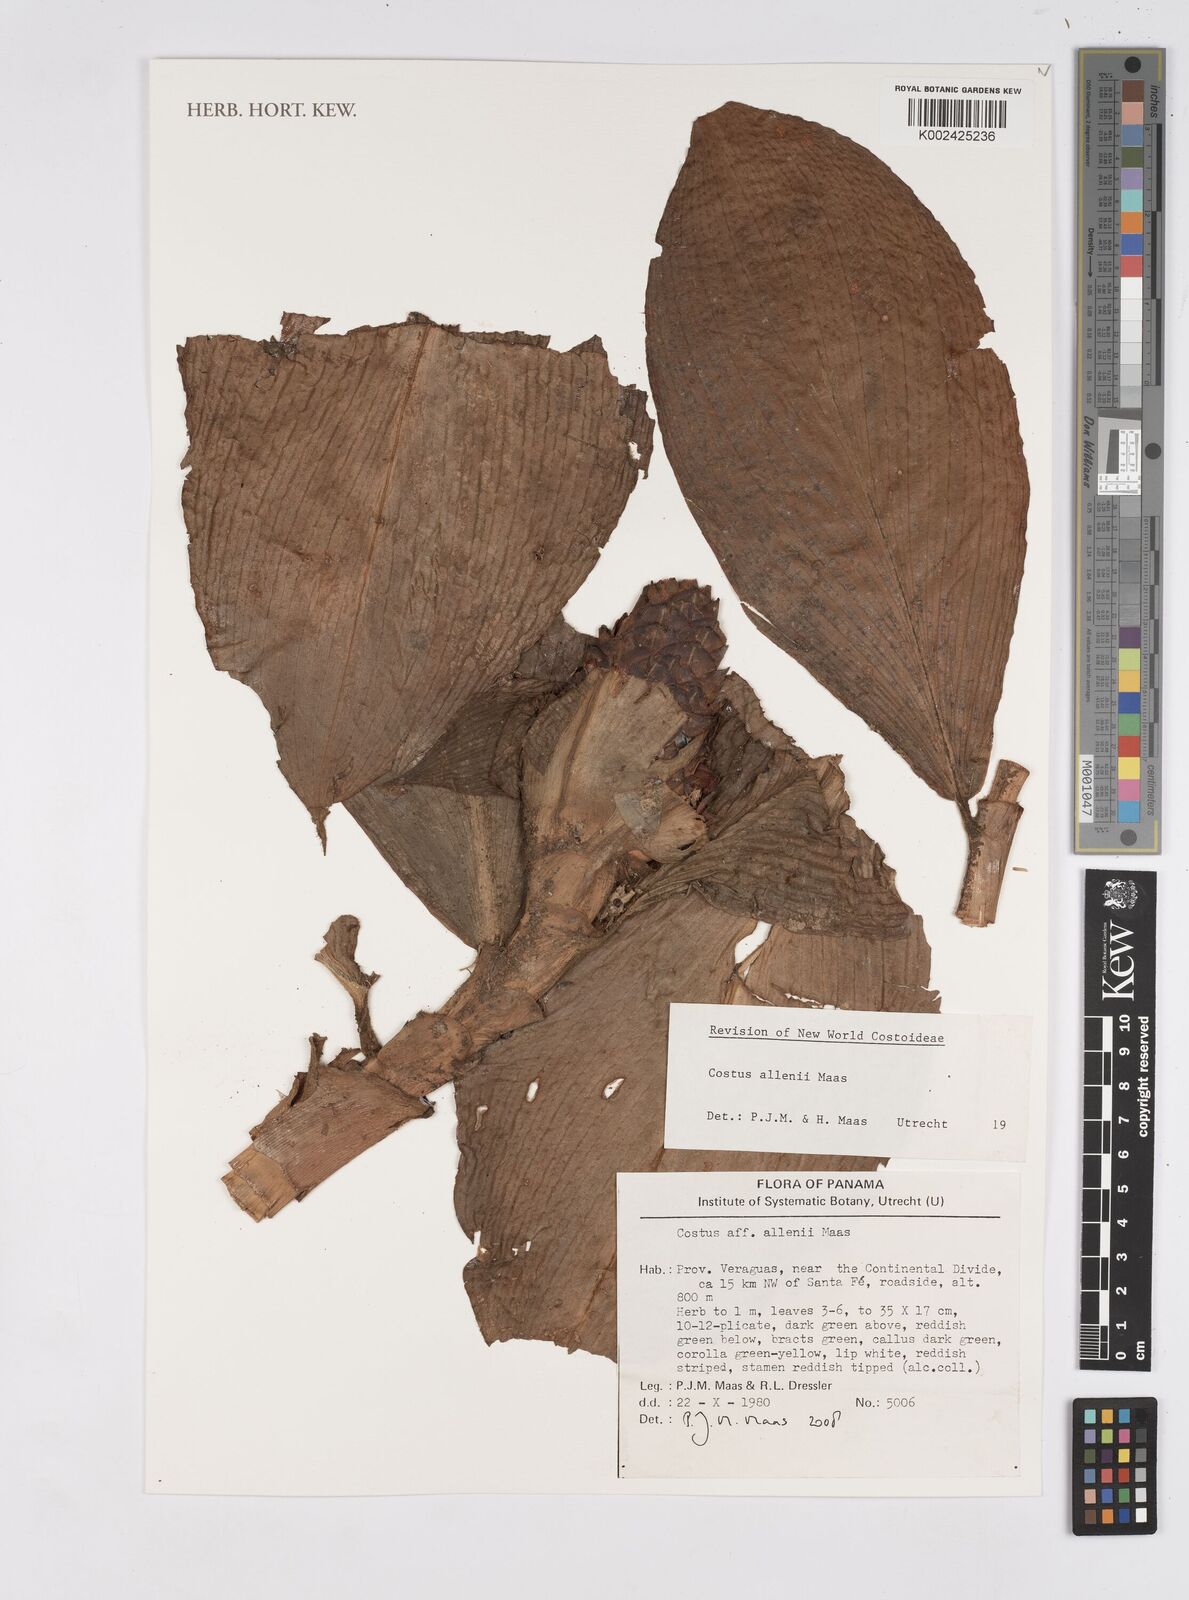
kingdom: Plantae
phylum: Tracheophyta
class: Liliopsida
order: Zingiberales
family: Costaceae
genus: Costus
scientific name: Costus allenii
